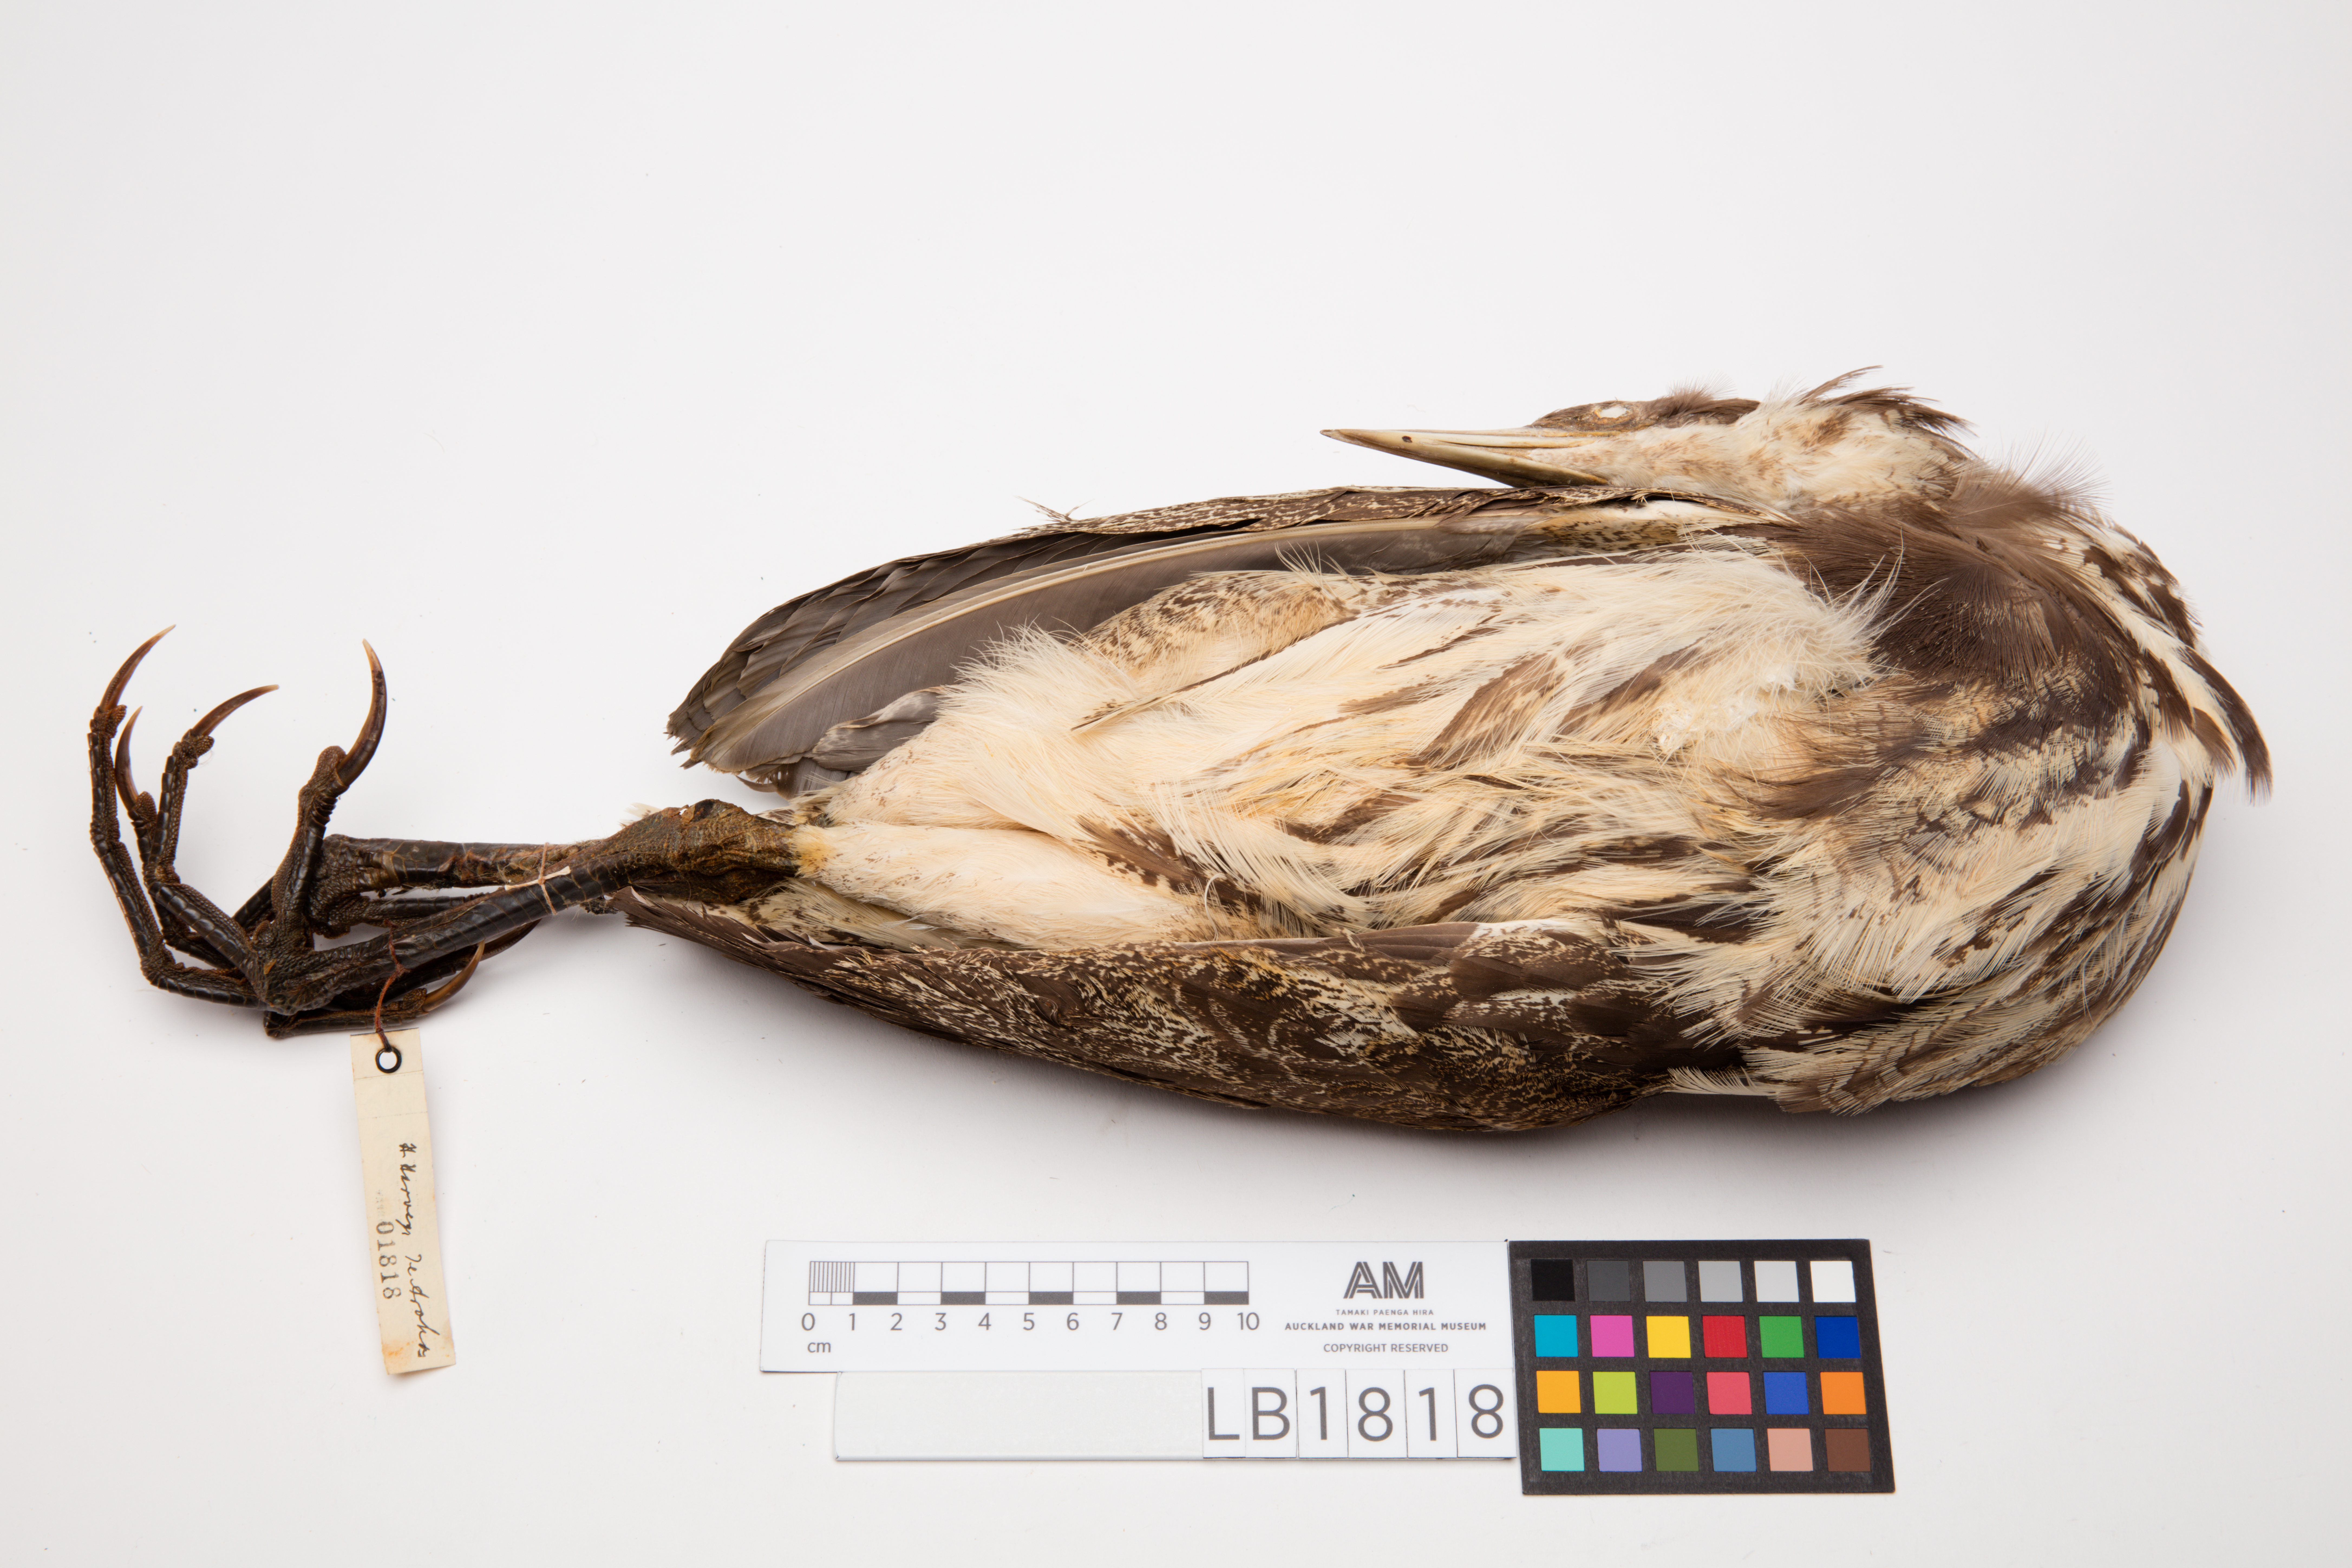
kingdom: Animalia
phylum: Chordata
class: Aves
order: Pelecaniformes
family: Ardeidae
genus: Botaurus
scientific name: Botaurus poiciloptilus
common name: Australasian bittern
